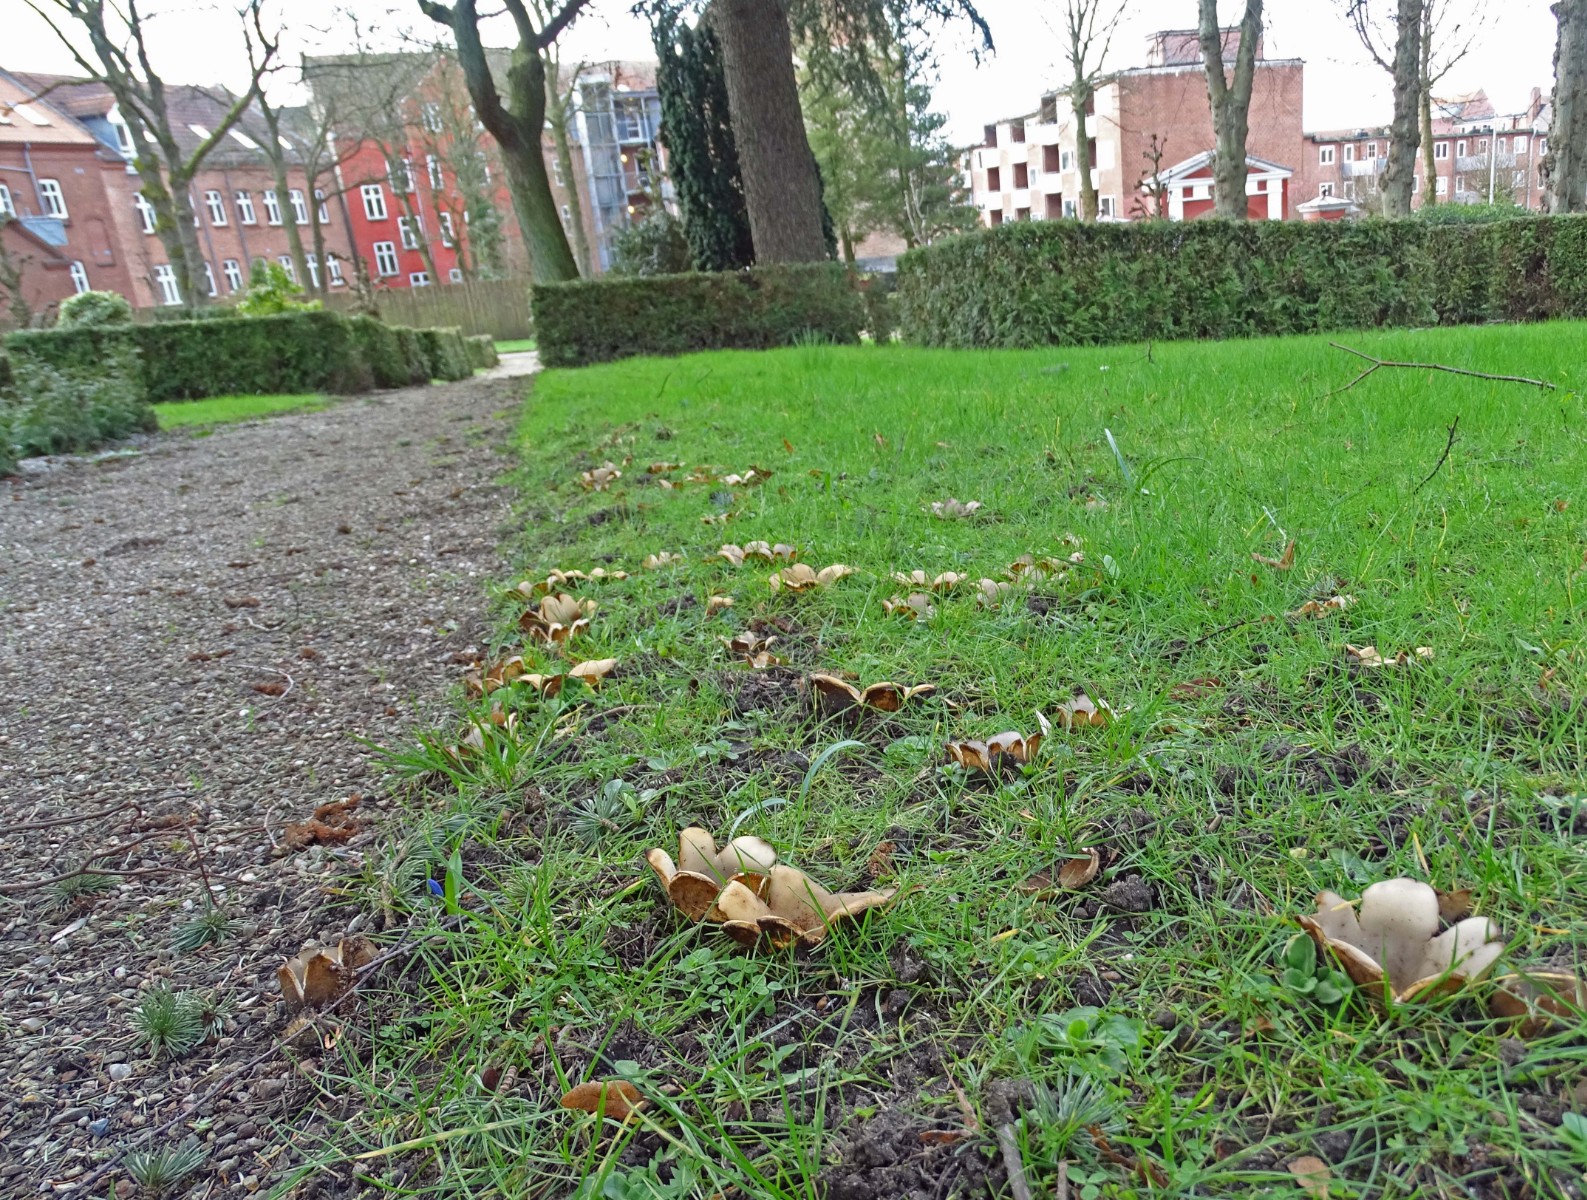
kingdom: Fungi
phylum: Ascomycota
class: Pezizomycetes
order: Pezizales
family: Pyronemataceae
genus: Geopora
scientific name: Geopora sumneriana
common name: vår-jordbæger
